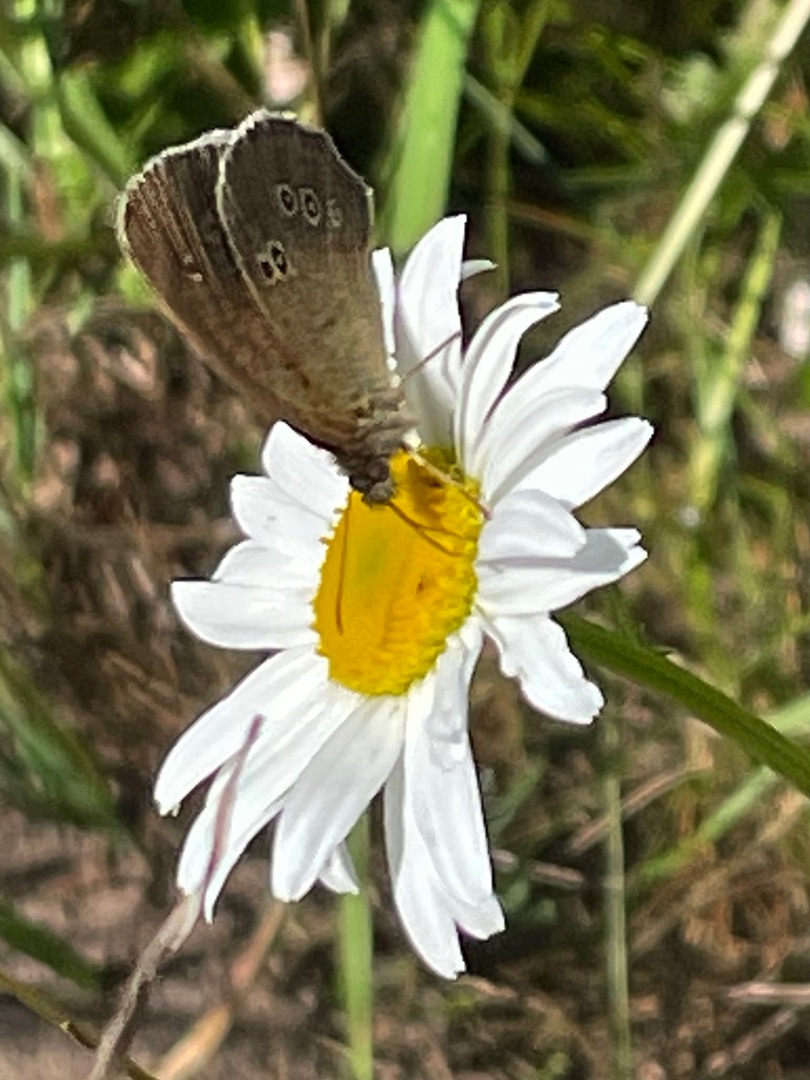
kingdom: Animalia
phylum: Arthropoda
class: Insecta
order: Lepidoptera
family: Nymphalidae
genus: Aphantopus
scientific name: Aphantopus hyperantus
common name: Engrandøje
